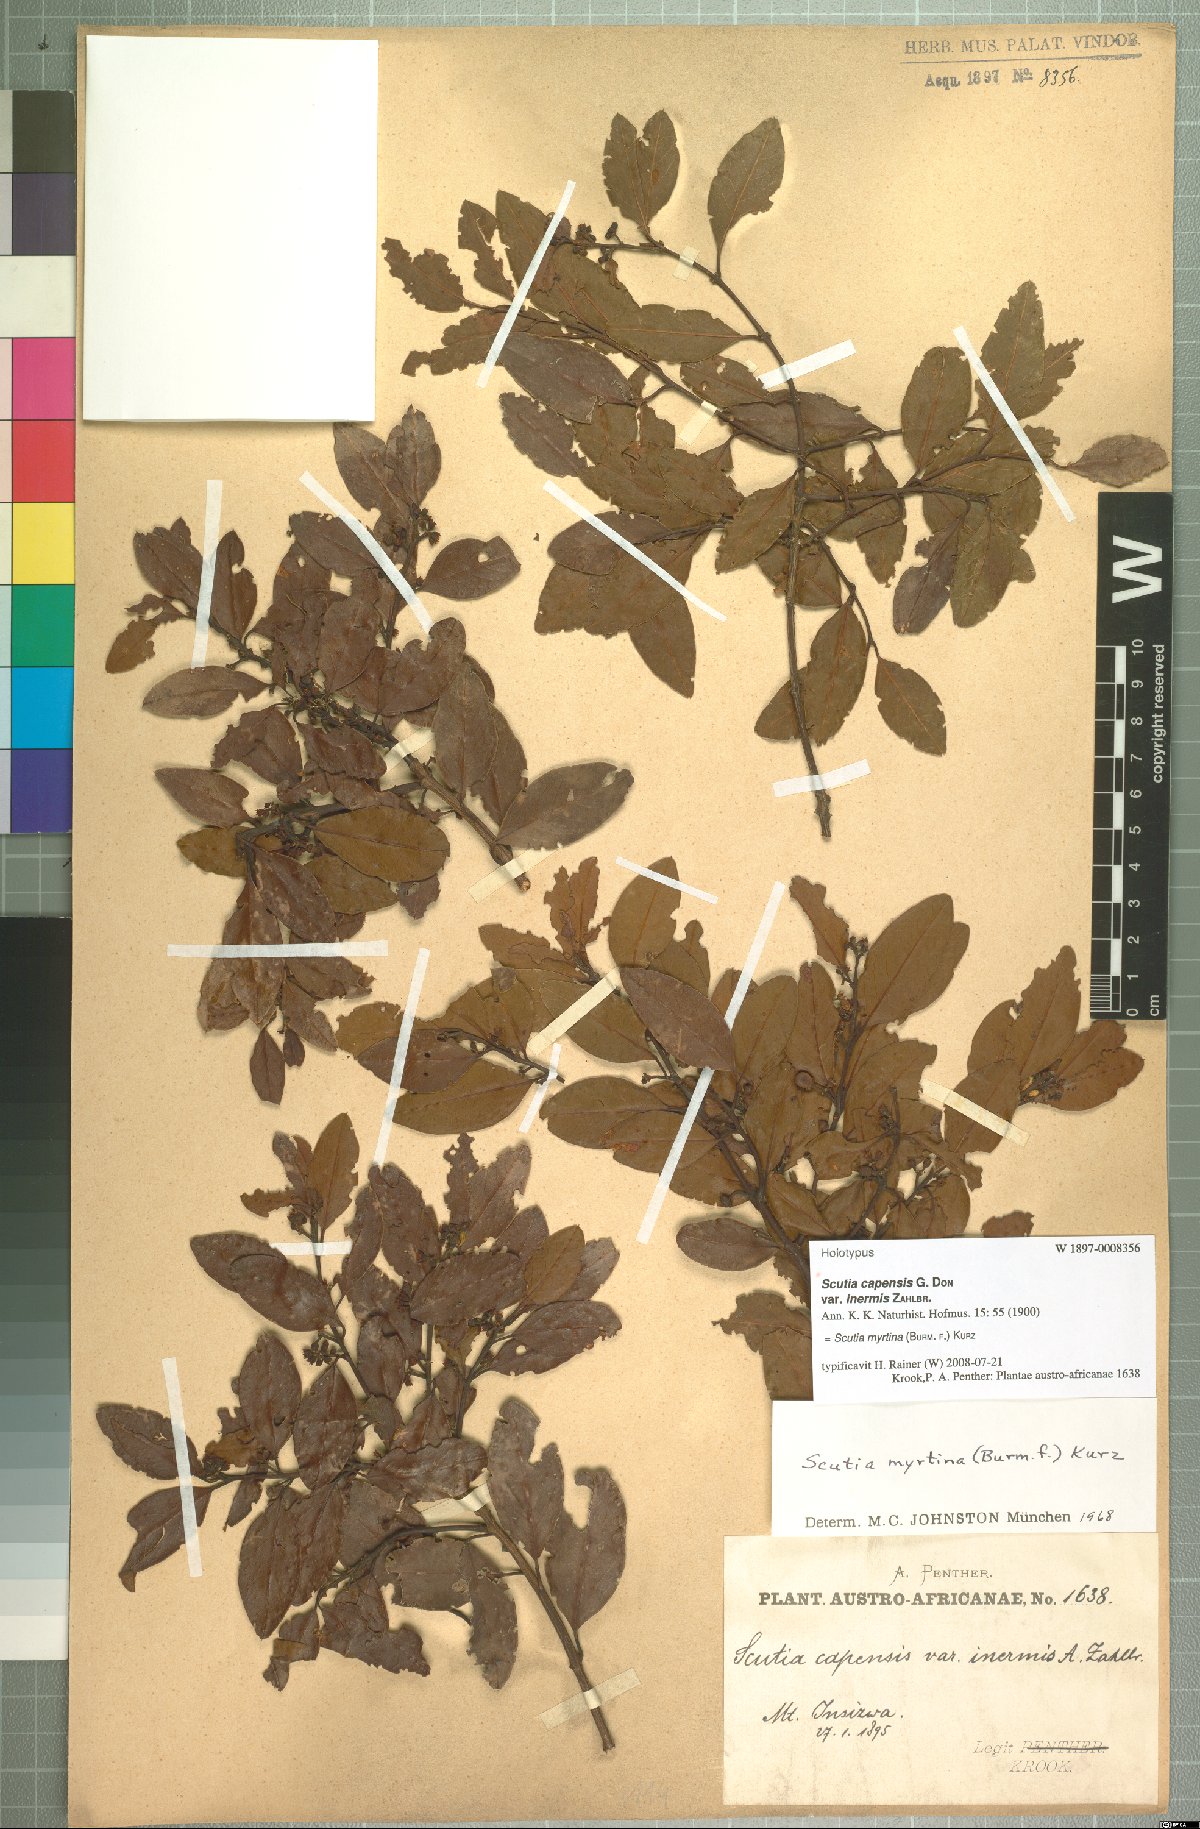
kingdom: Plantae
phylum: Tracheophyta
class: Magnoliopsida
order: Rosales
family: Rhamnaceae
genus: Scutia
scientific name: Scutia myrtina
